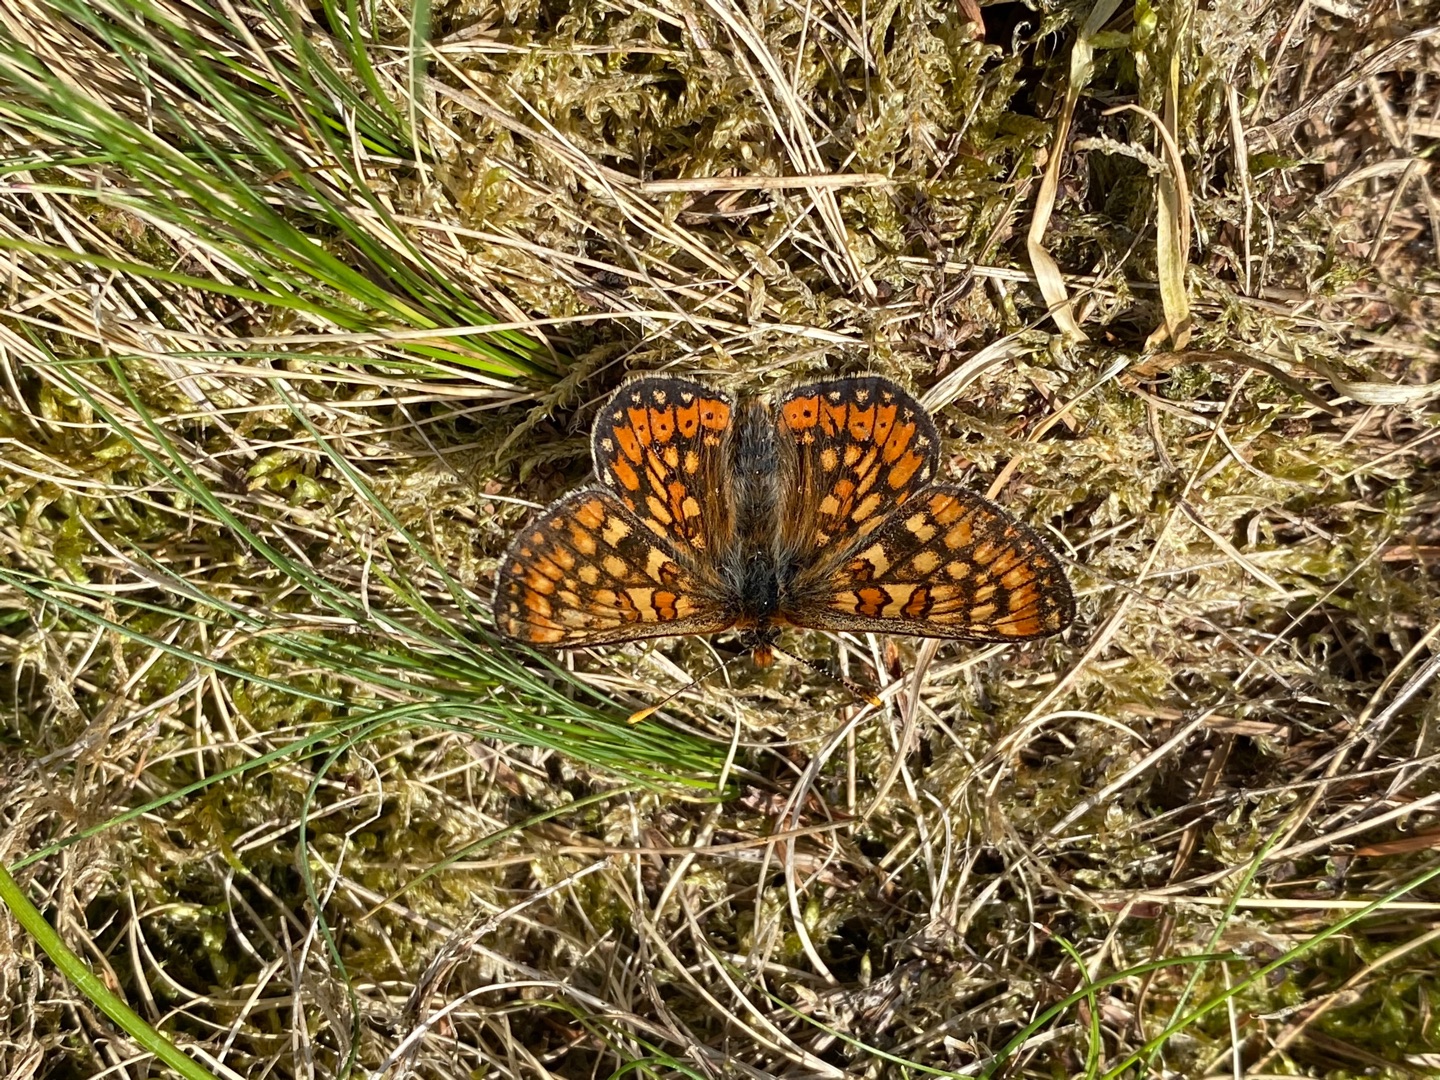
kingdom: Animalia
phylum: Arthropoda
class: Insecta
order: Lepidoptera
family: Nymphalidae
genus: Euphydryas
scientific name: Euphydryas aurinia
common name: Hedepletvinge
